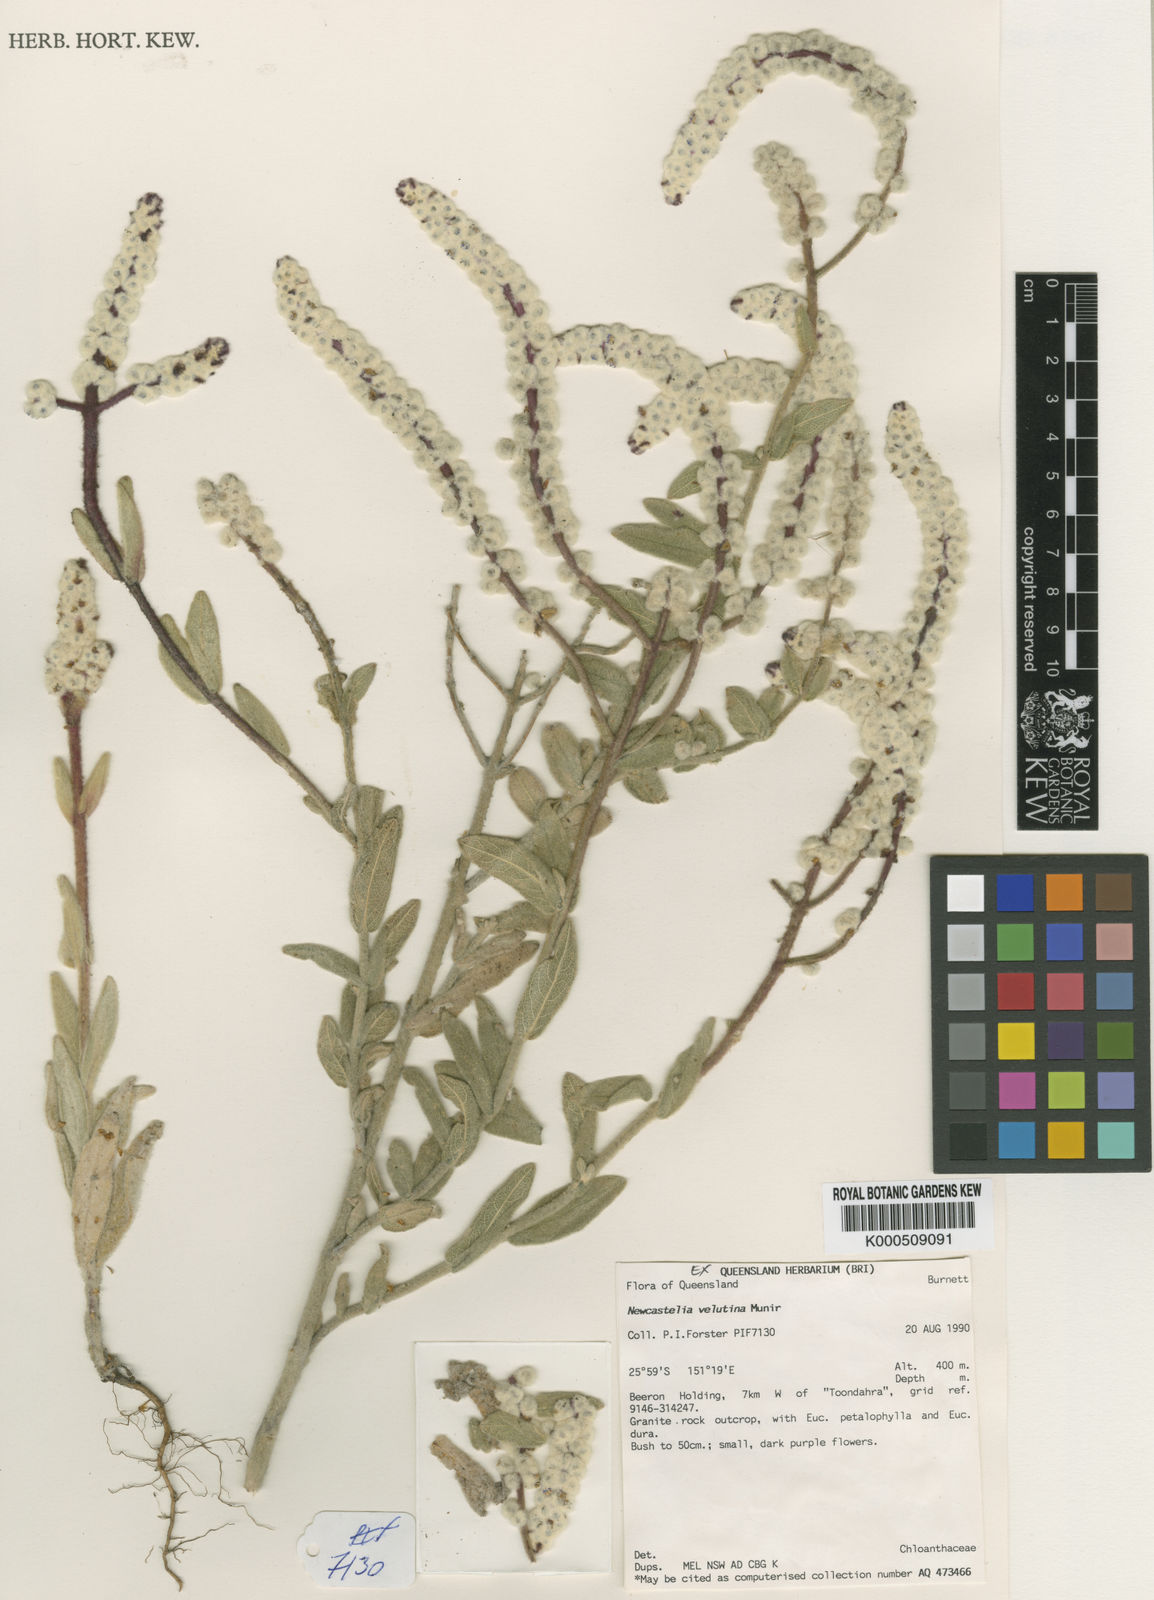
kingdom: Plantae
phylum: Tracheophyta
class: Magnoliopsida
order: Lamiales
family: Lamiaceae
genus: Newcastelia
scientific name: Newcastelia velutina
